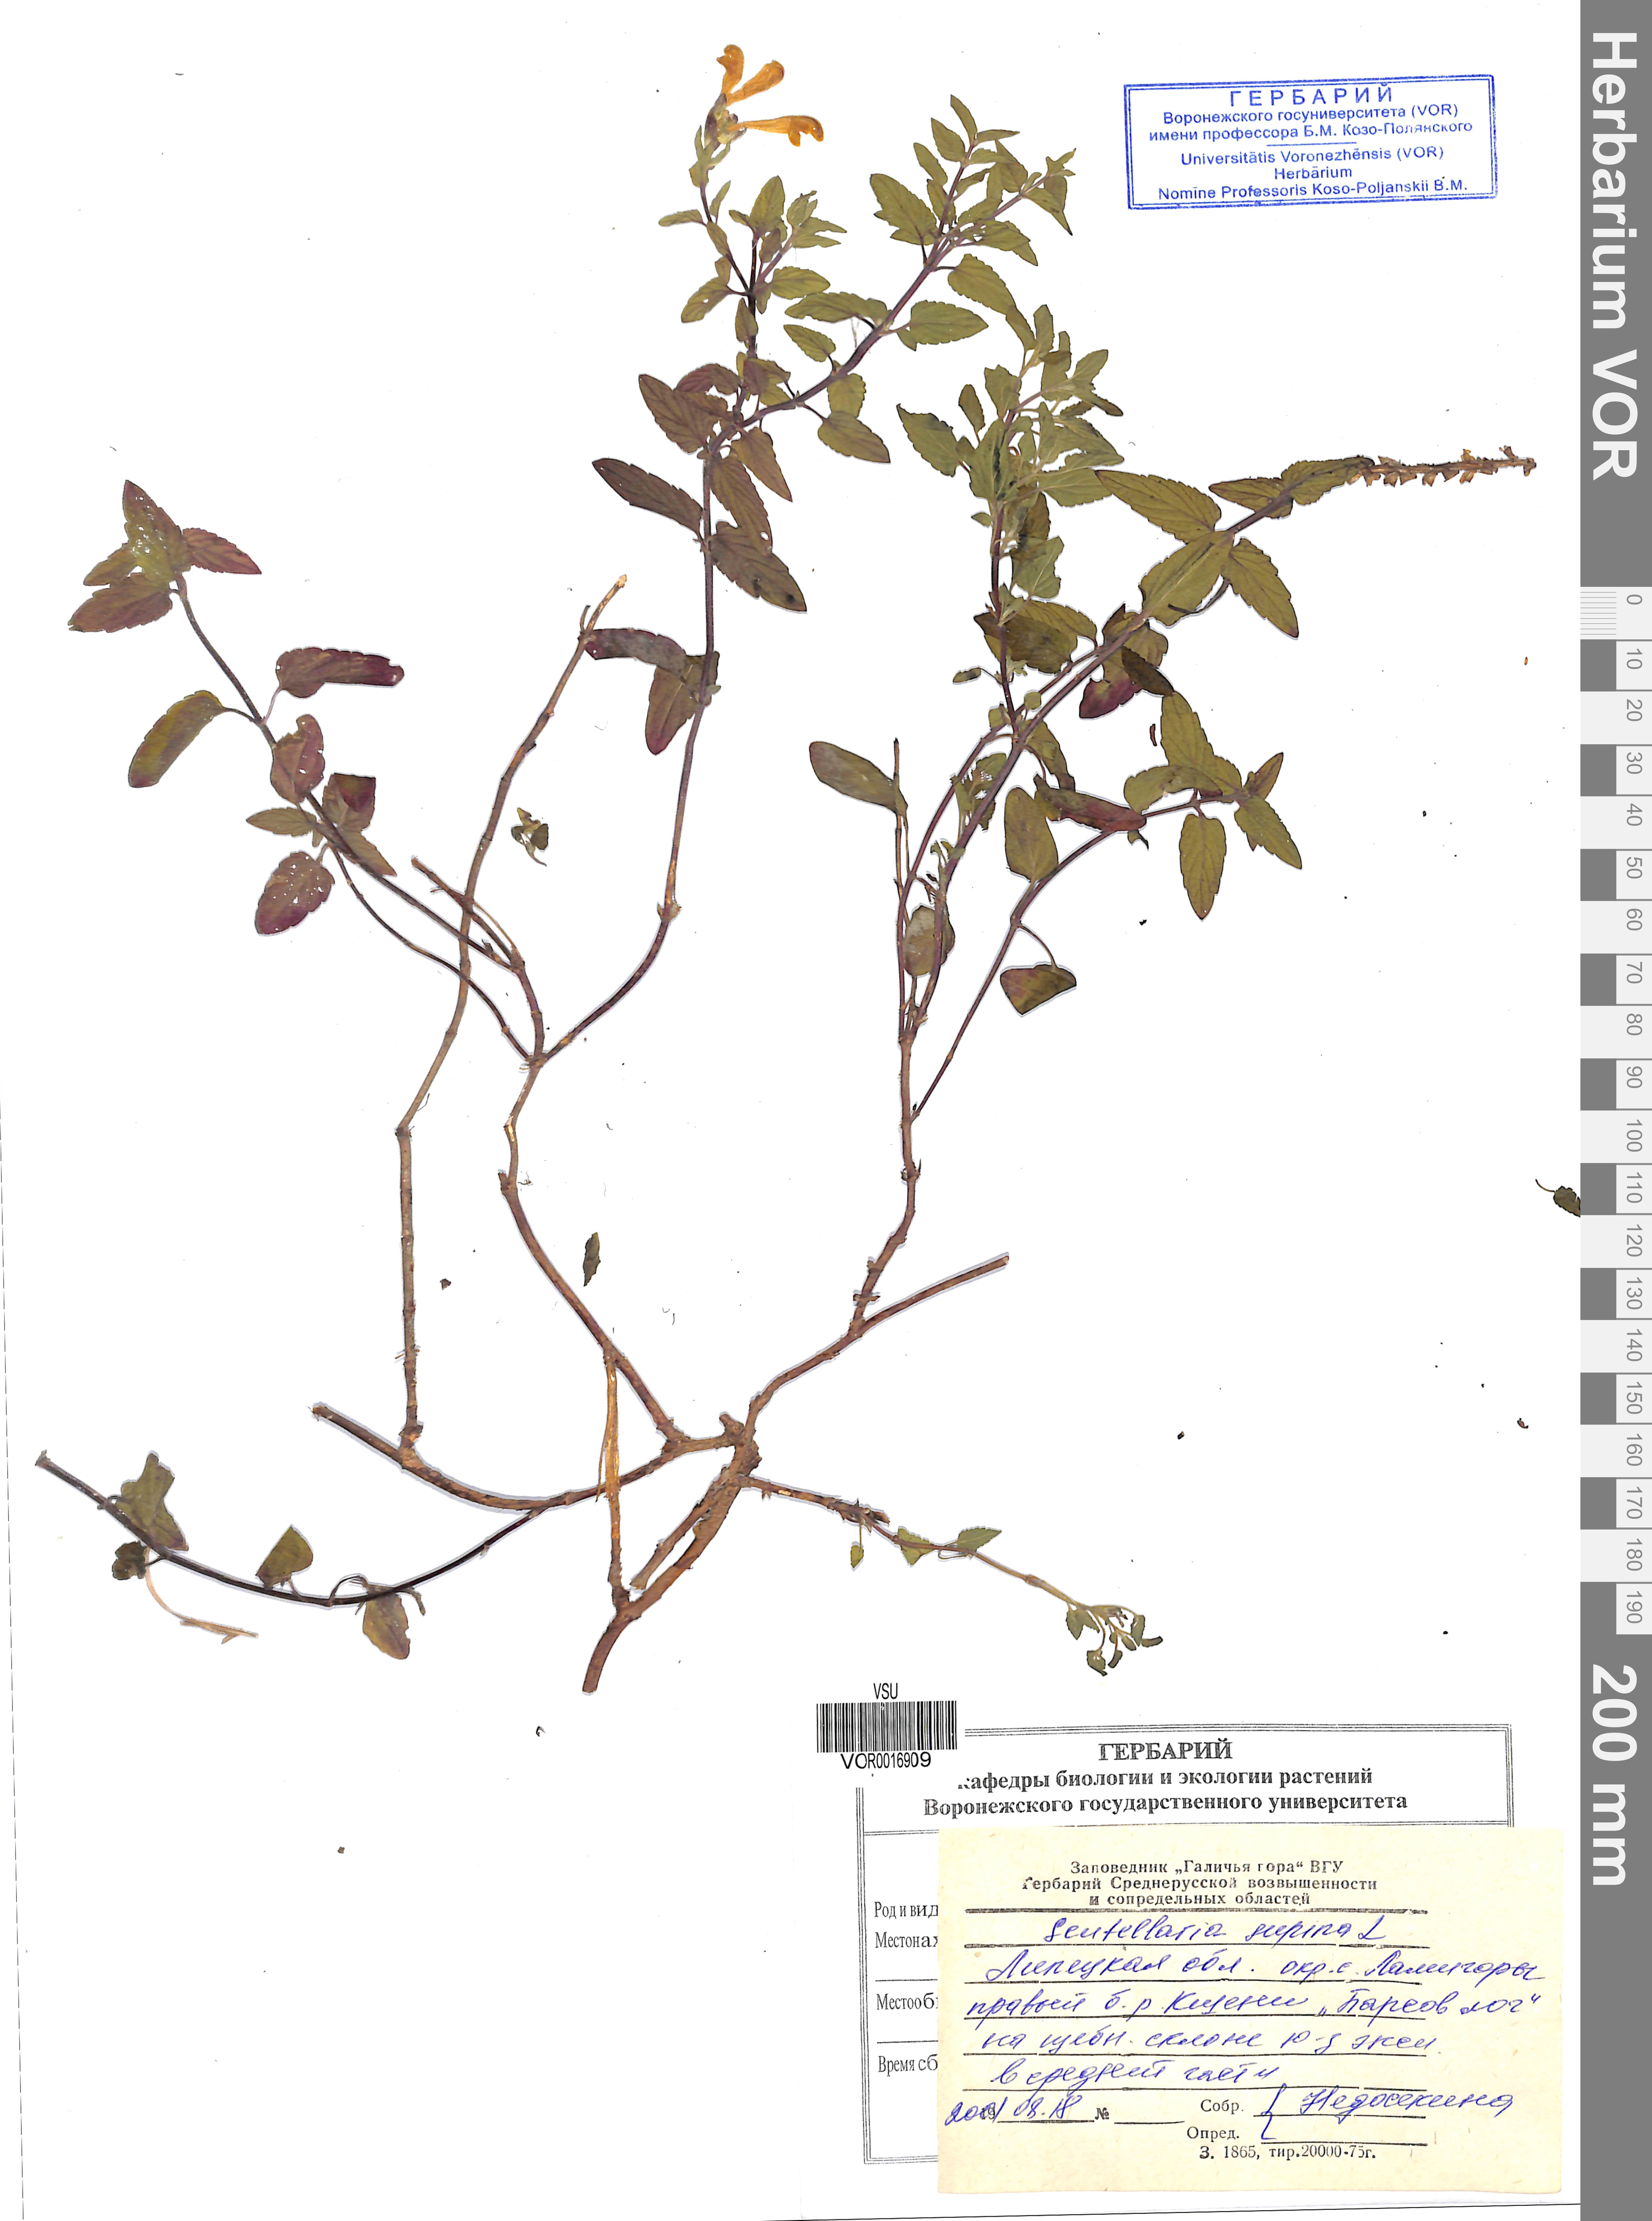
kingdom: Plantae
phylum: Tracheophyta
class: Magnoliopsida
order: Lamiales
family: Lamiaceae
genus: Scutellaria
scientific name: Scutellaria supina
